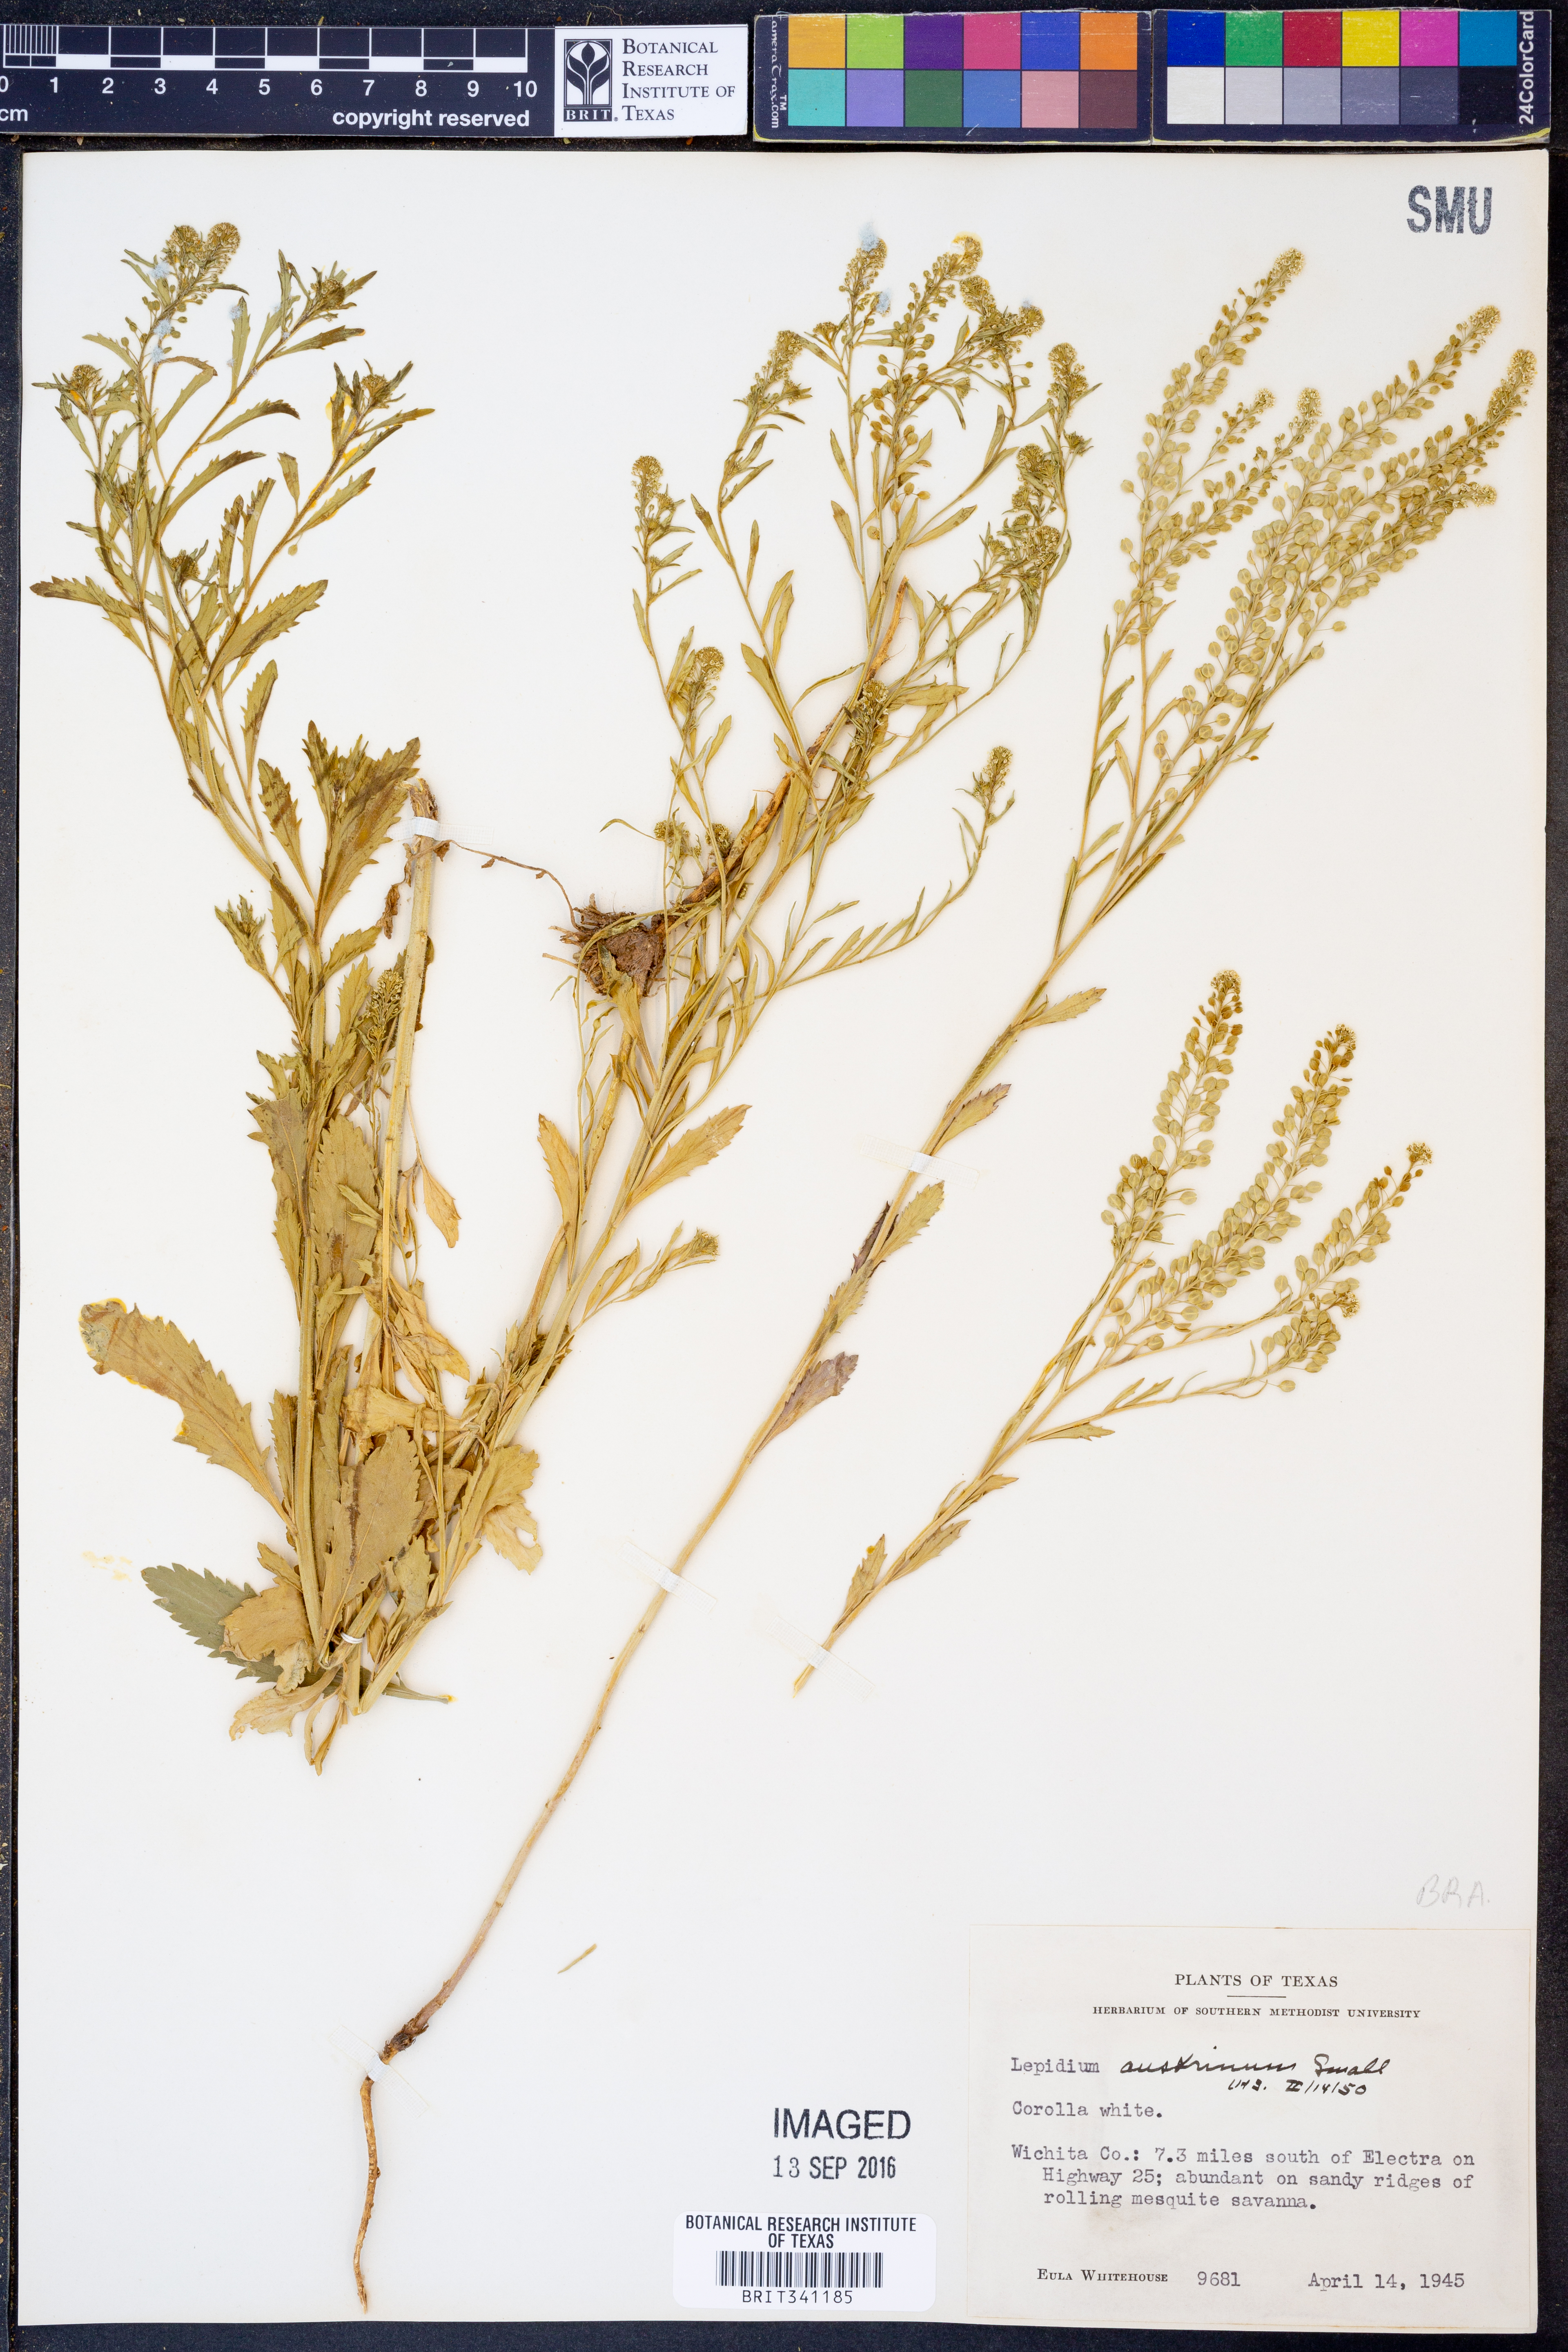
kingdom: Plantae
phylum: Tracheophyta
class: Magnoliopsida
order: Brassicales
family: Brassicaceae
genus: Lepidium
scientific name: Lepidium austrinum
